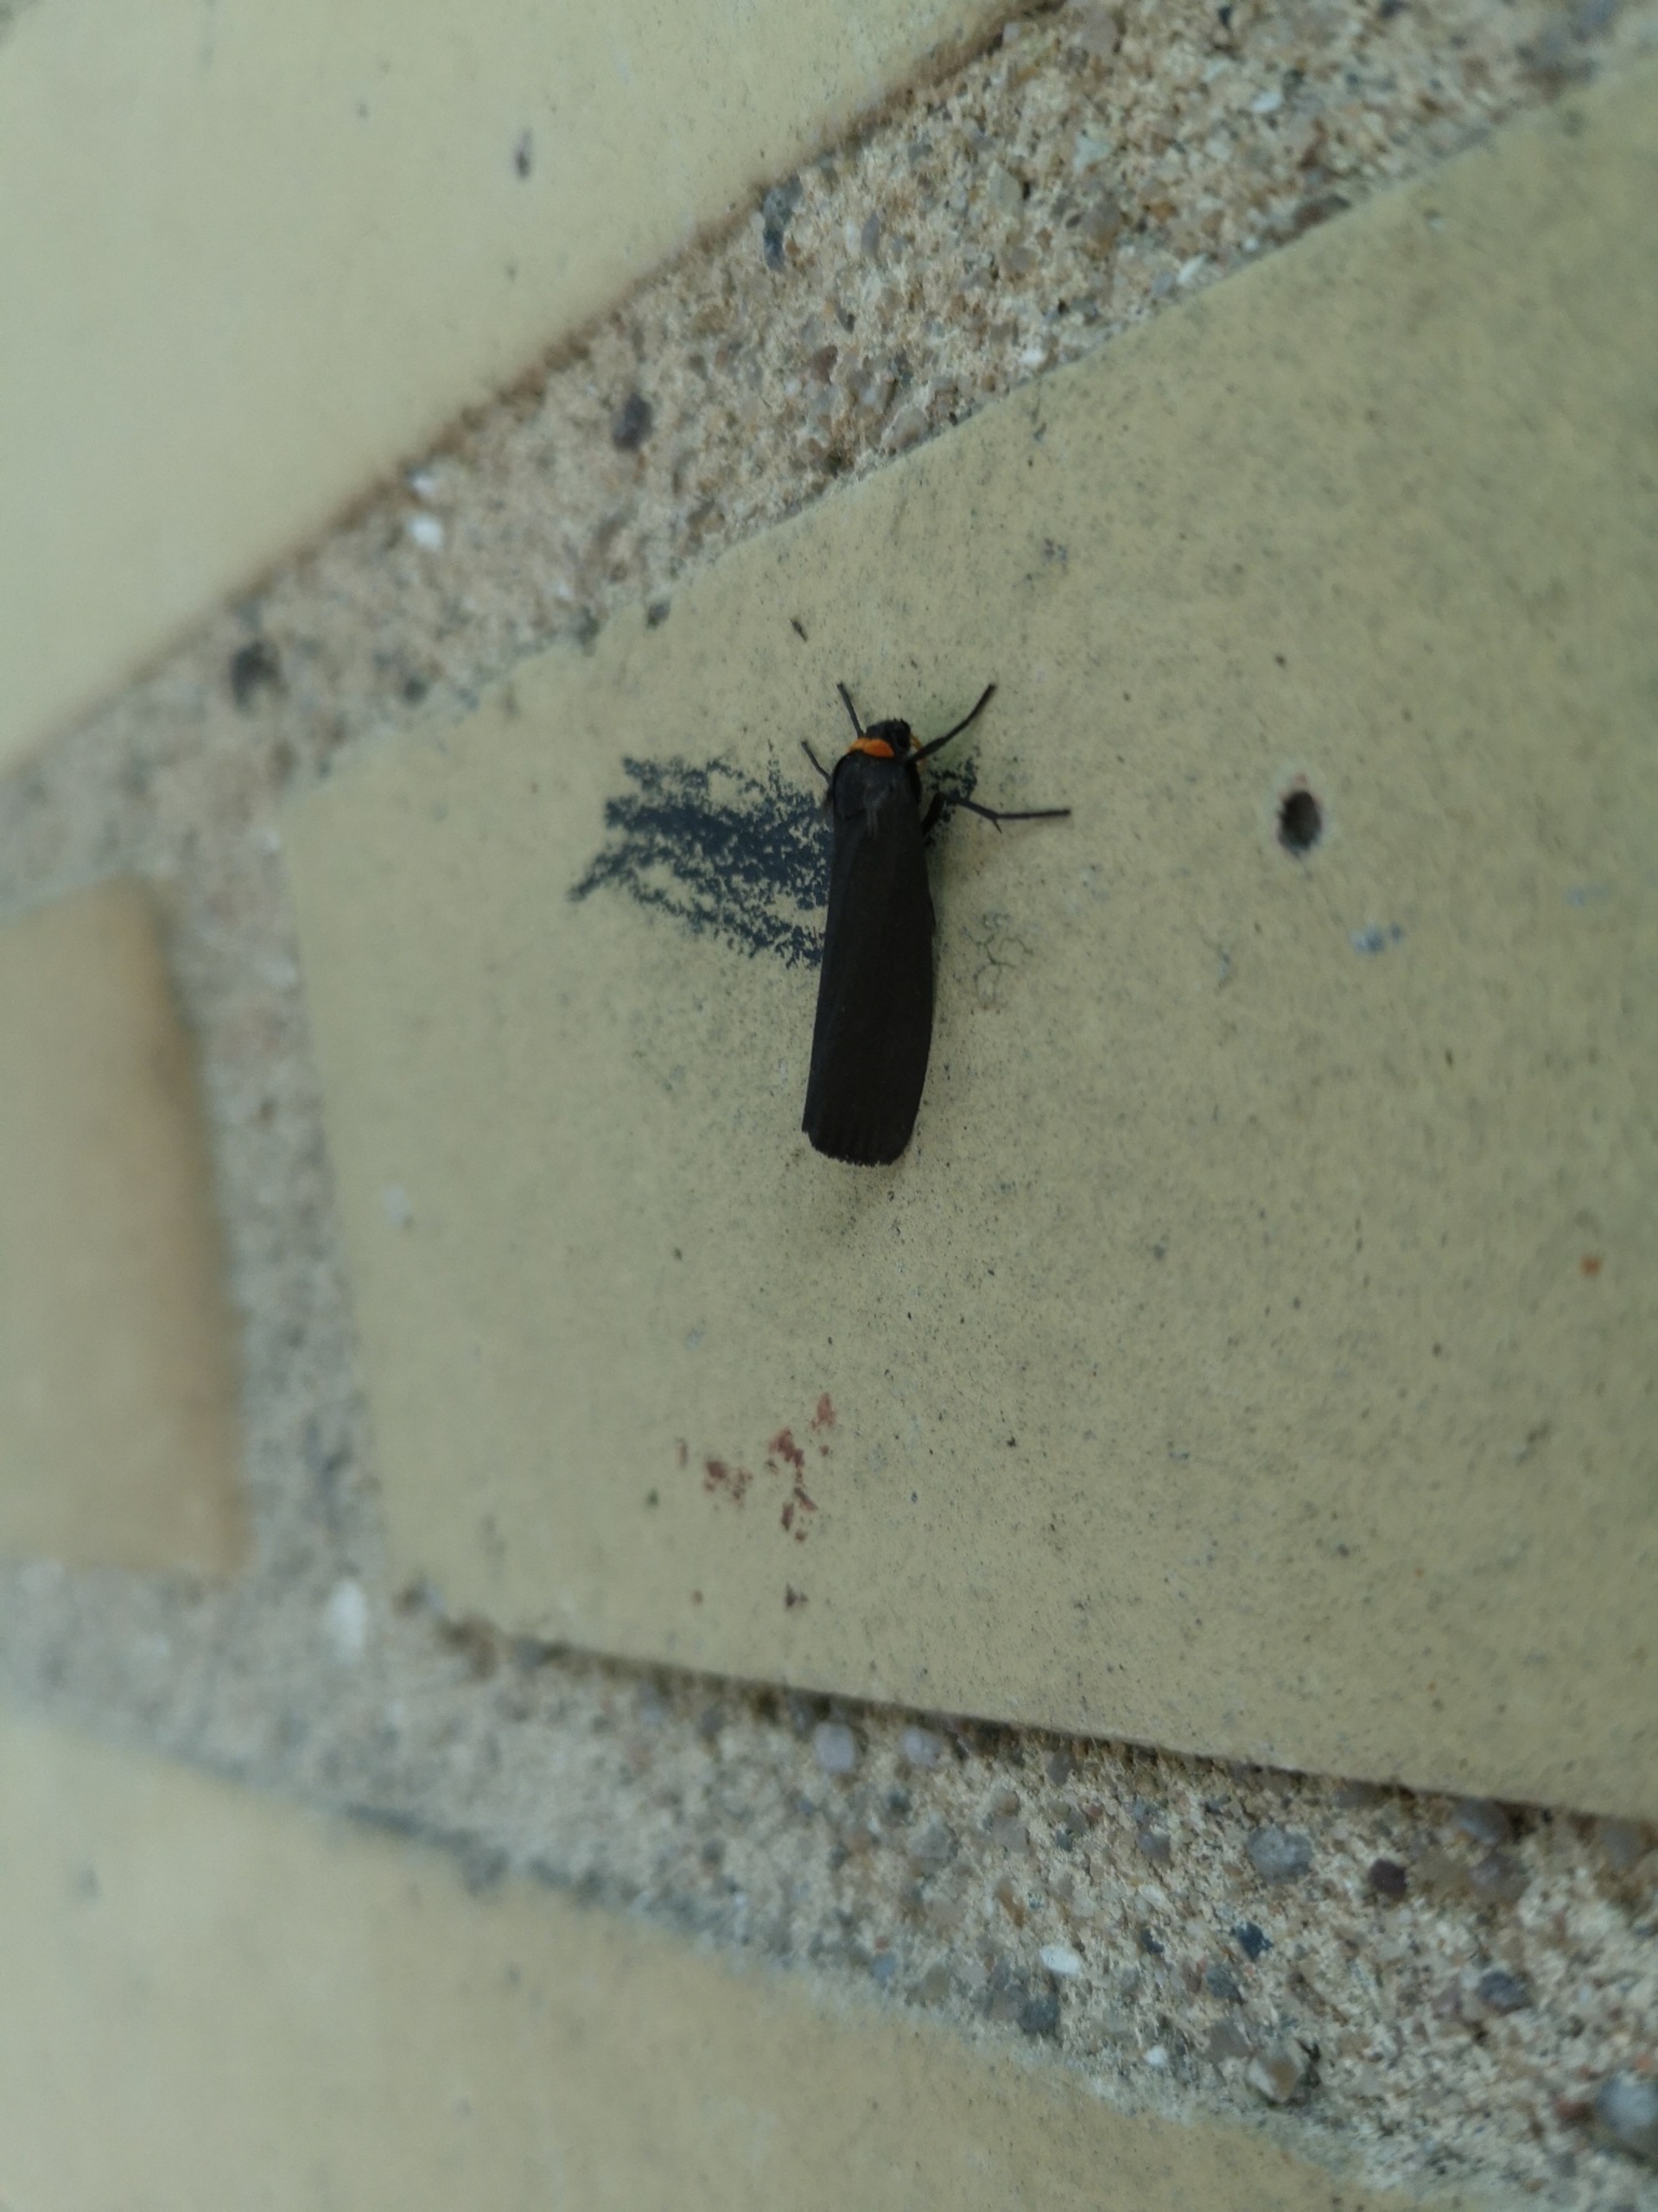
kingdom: Animalia
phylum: Arthropoda
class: Insecta
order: Lepidoptera
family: Erebidae
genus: Atolmis
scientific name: Atolmis rubricollis
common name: Blodnakke
